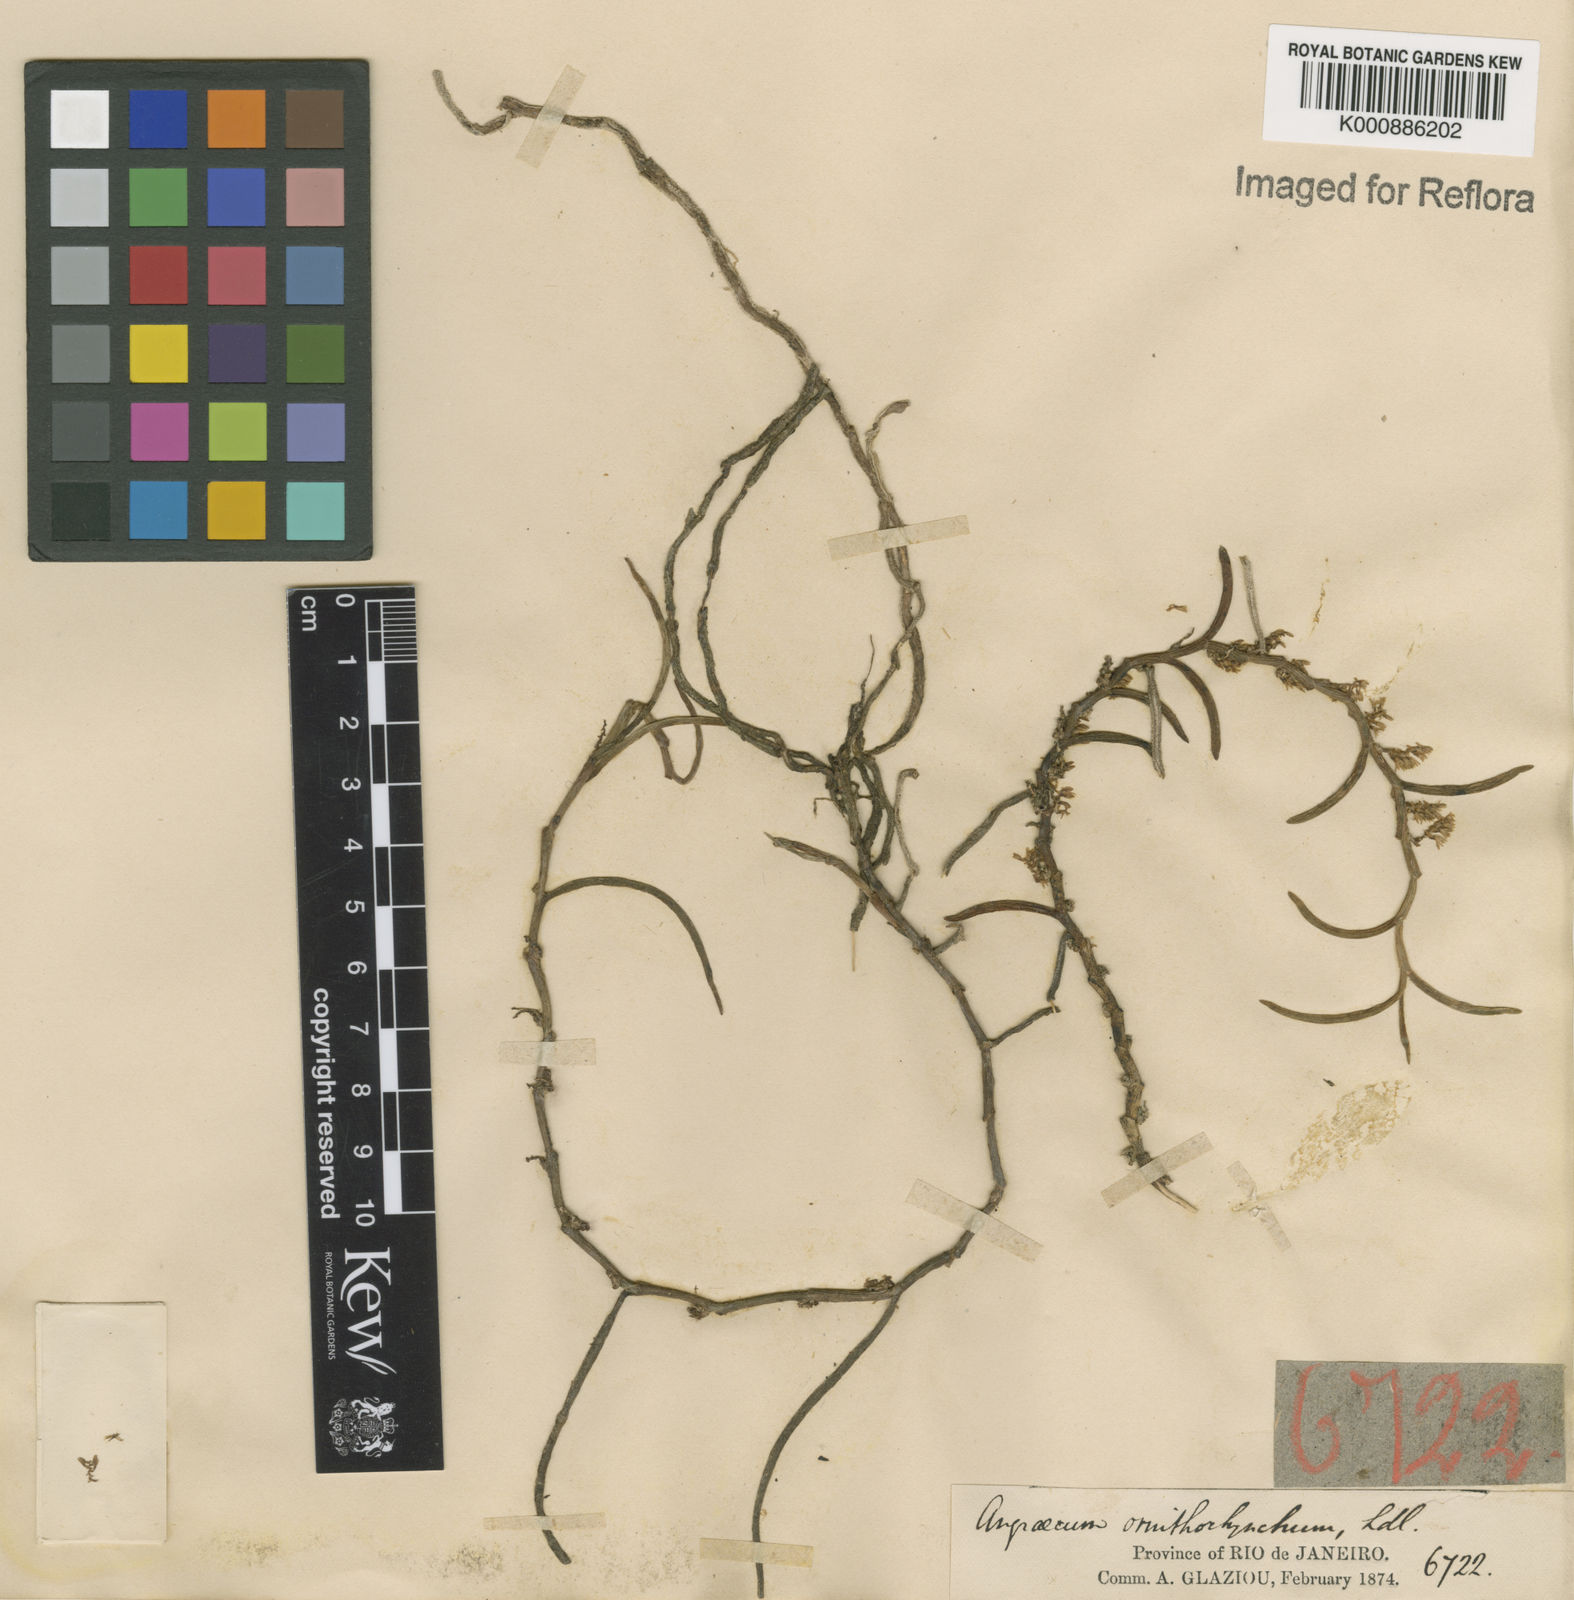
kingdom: Plantae
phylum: Tracheophyta
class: Liliopsida
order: Asparagales
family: Orchidaceae
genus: Campylocentrum
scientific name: Campylocentrum ornithorrhynchum
